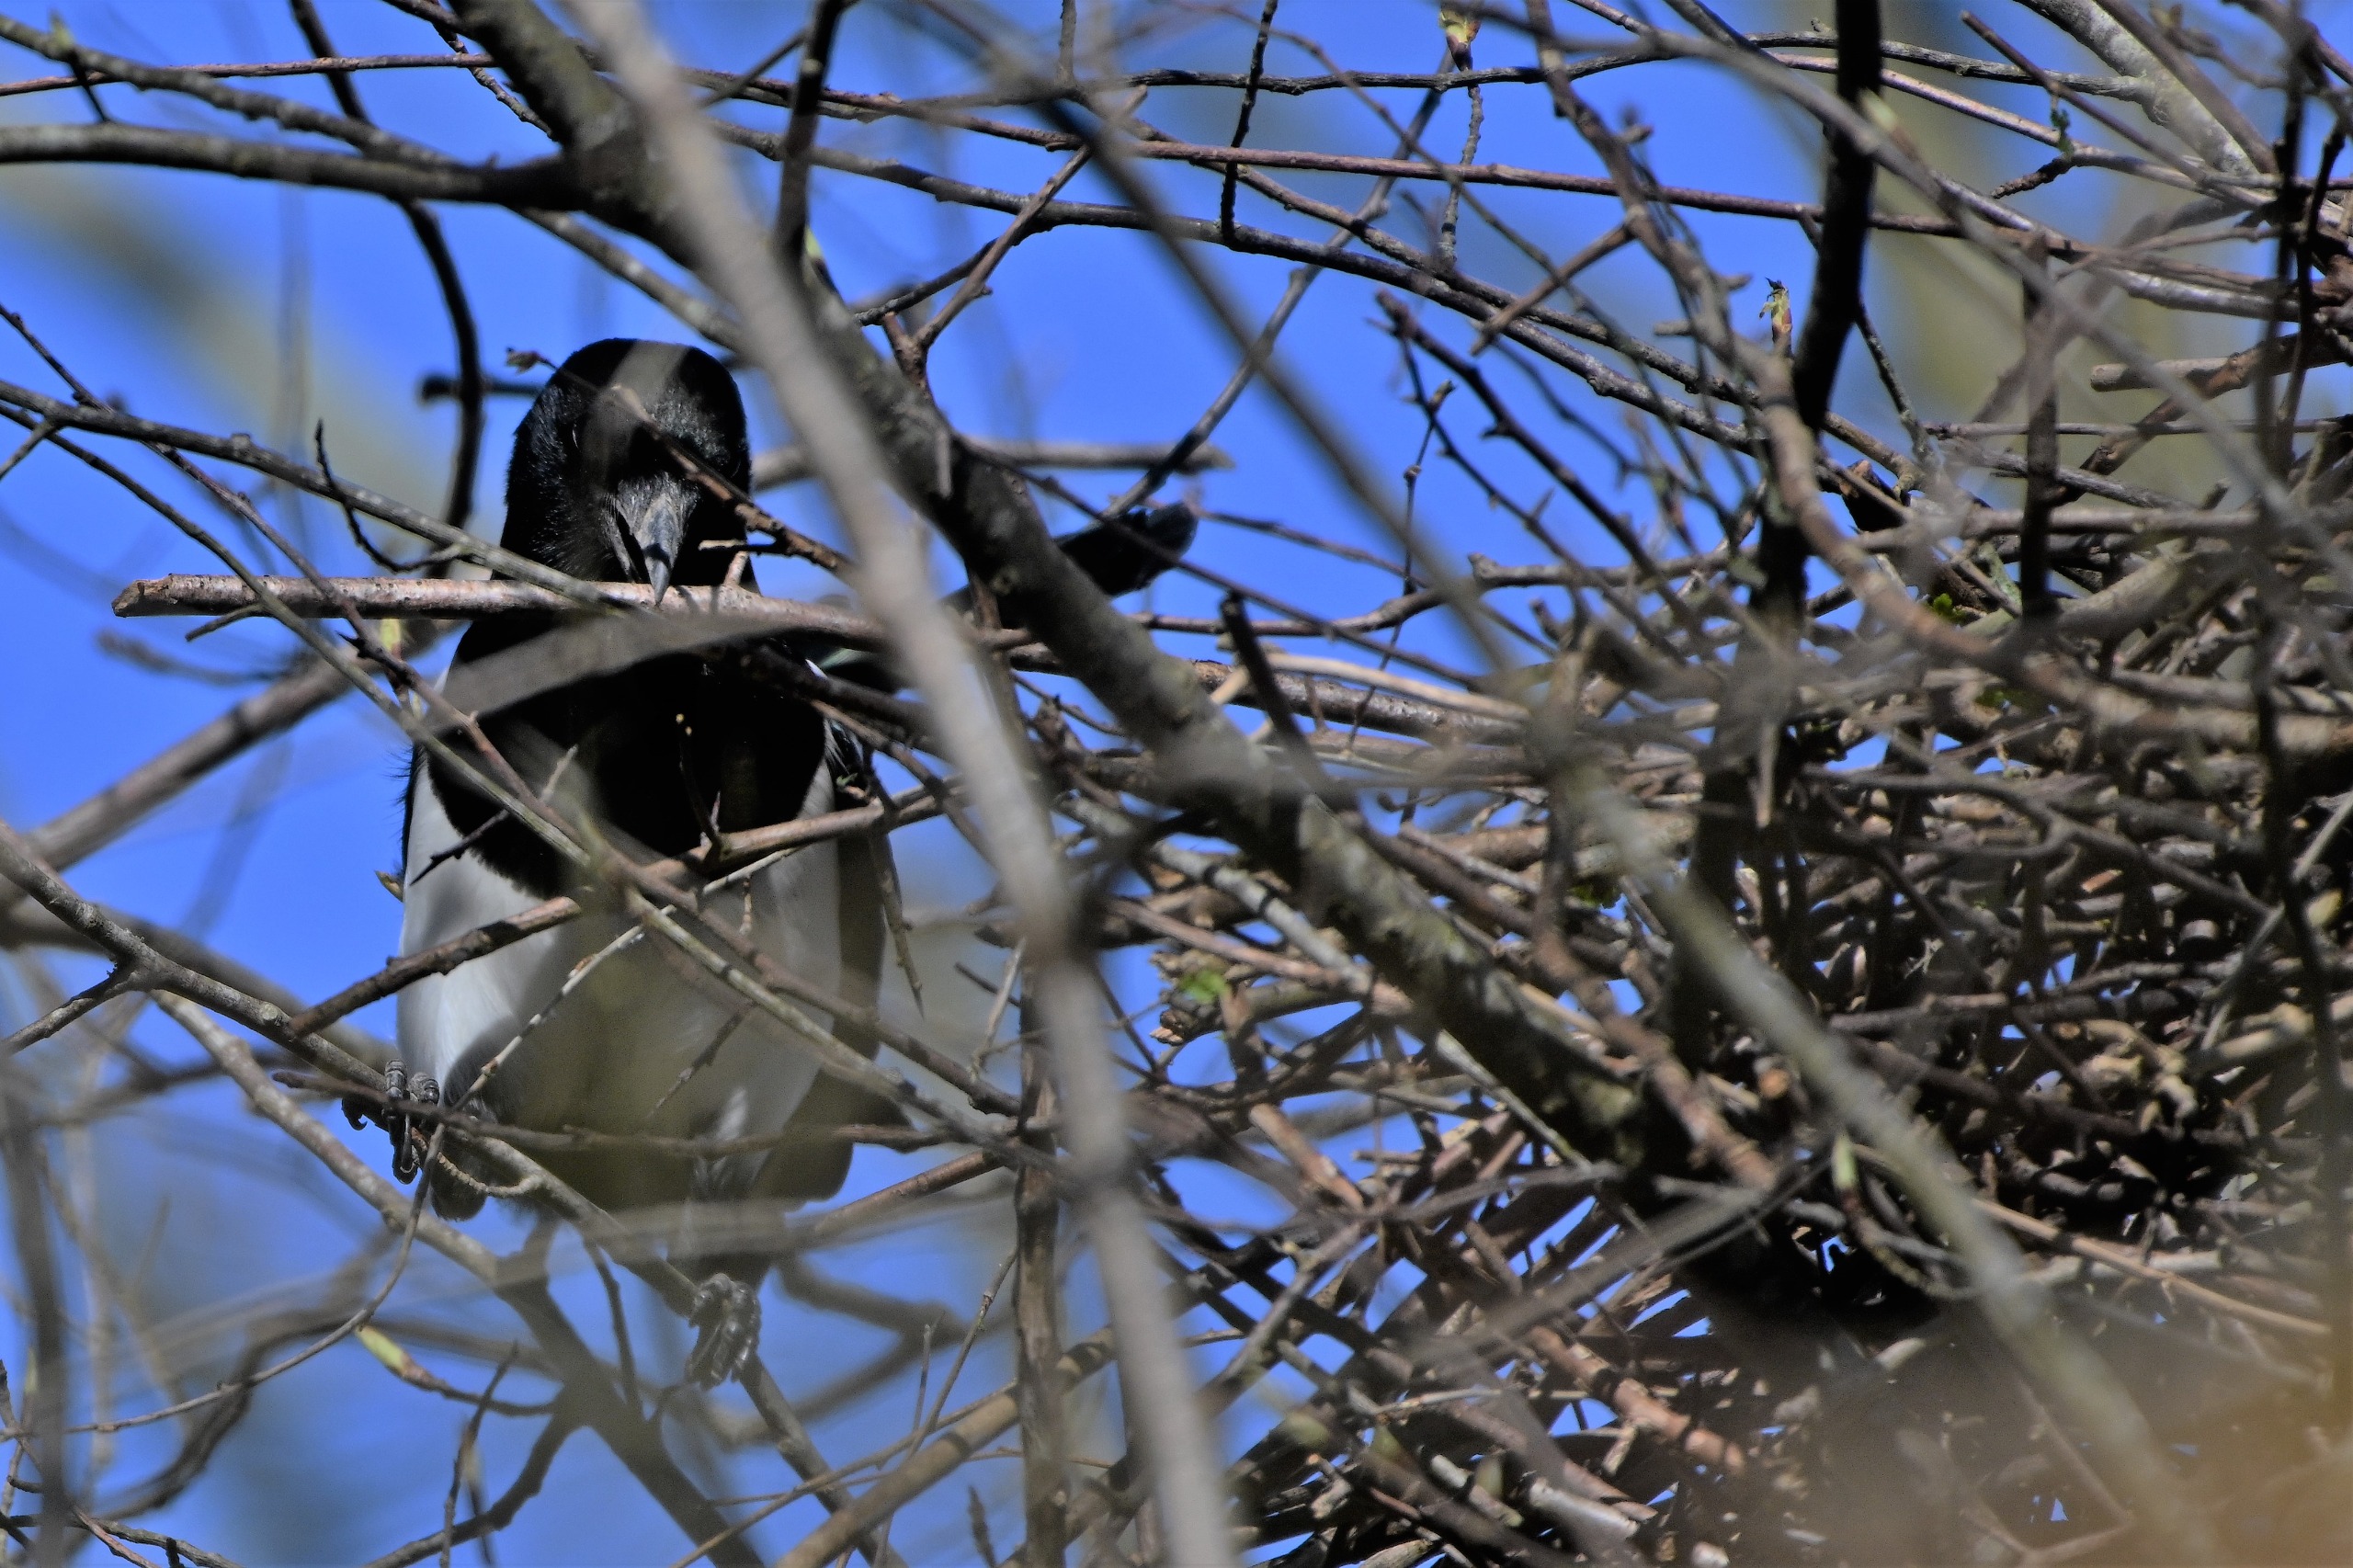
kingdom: Animalia
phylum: Chordata
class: Aves
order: Passeriformes
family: Corvidae
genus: Pica
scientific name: Pica pica
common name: Husskade
